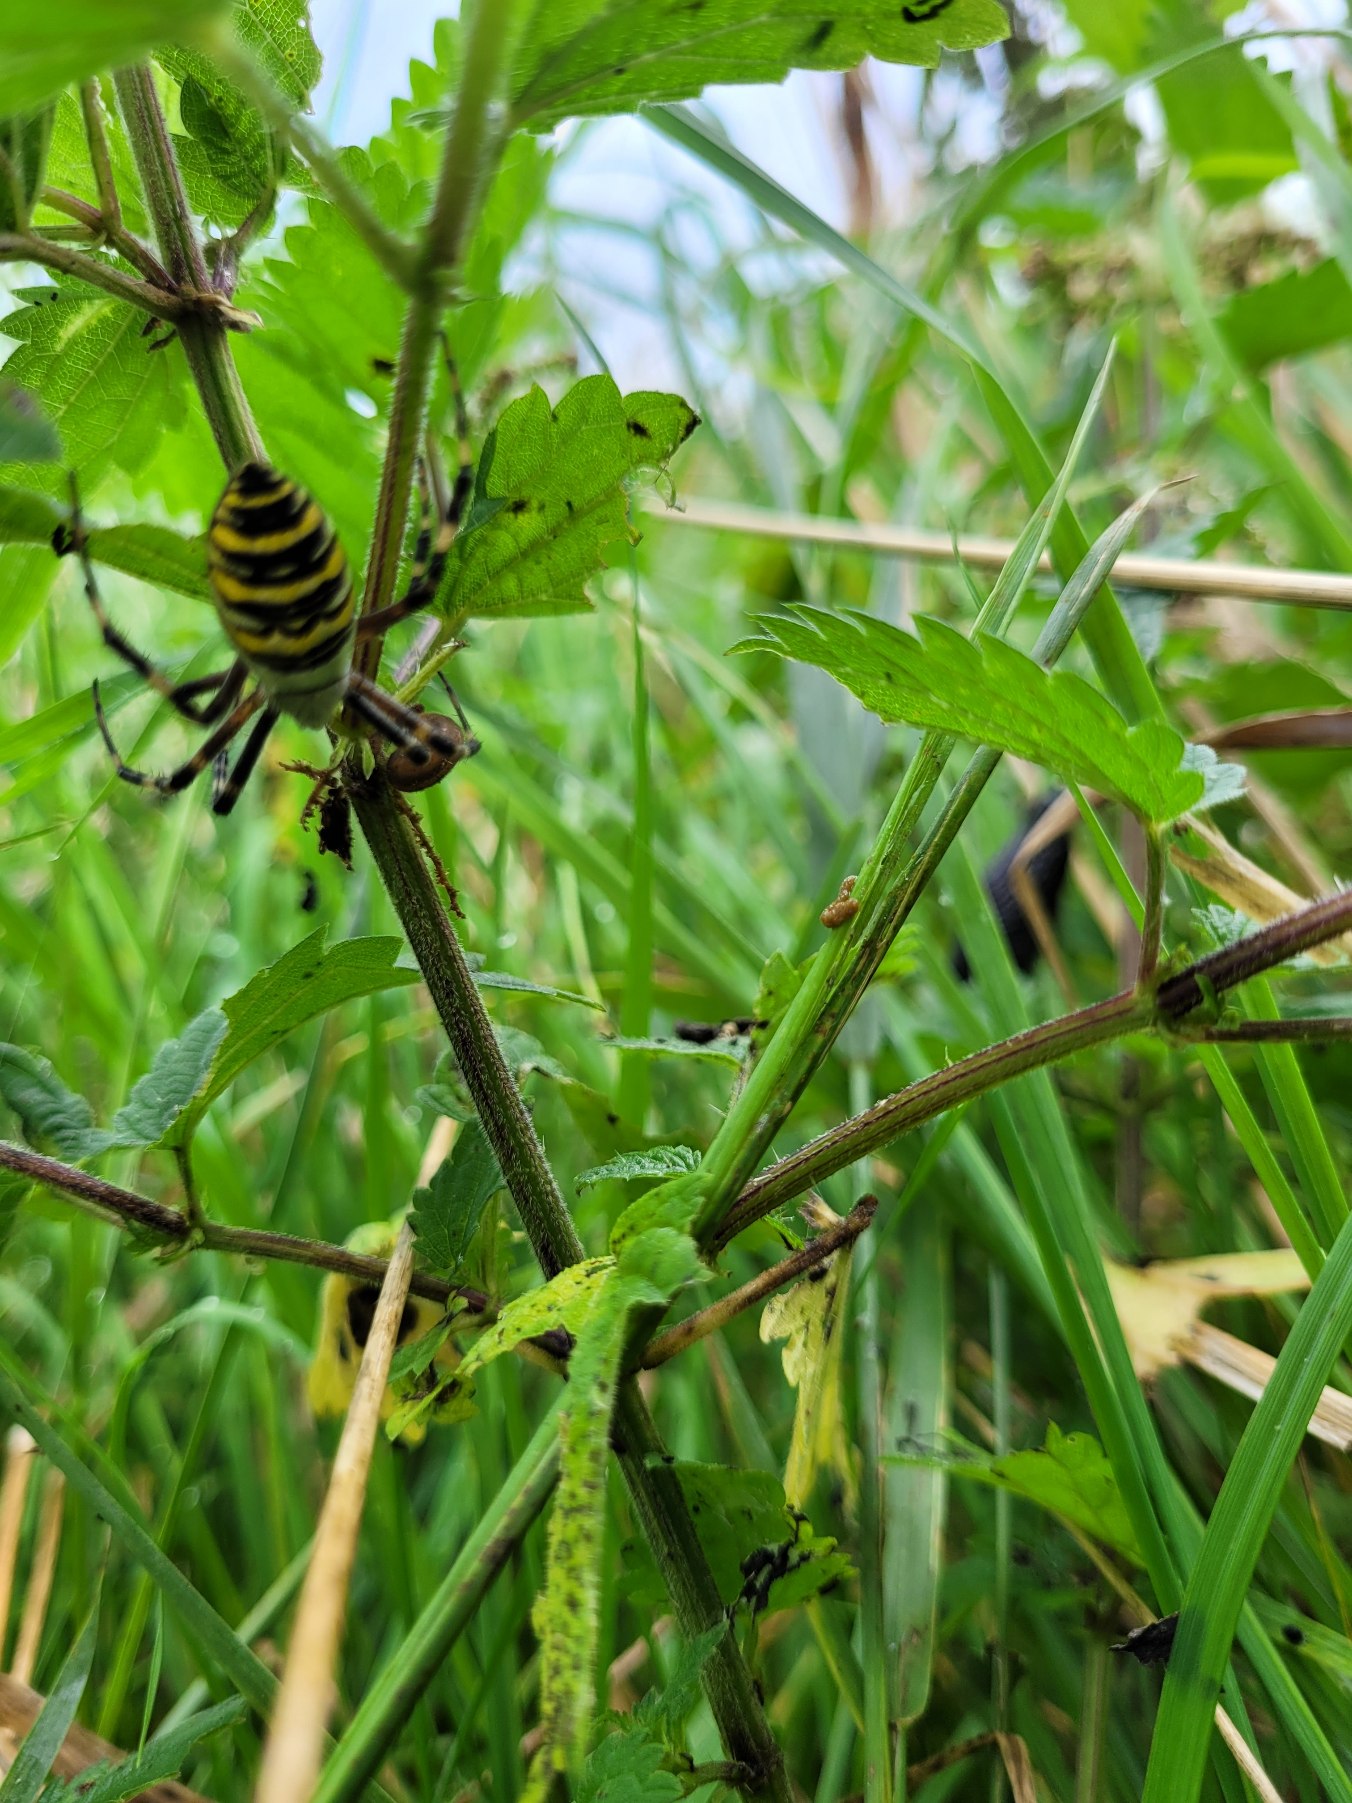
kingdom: Animalia
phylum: Arthropoda
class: Arachnida
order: Araneae
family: Araneidae
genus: Argiope
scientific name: Argiope bruennichi
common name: Hvepseedderkop
